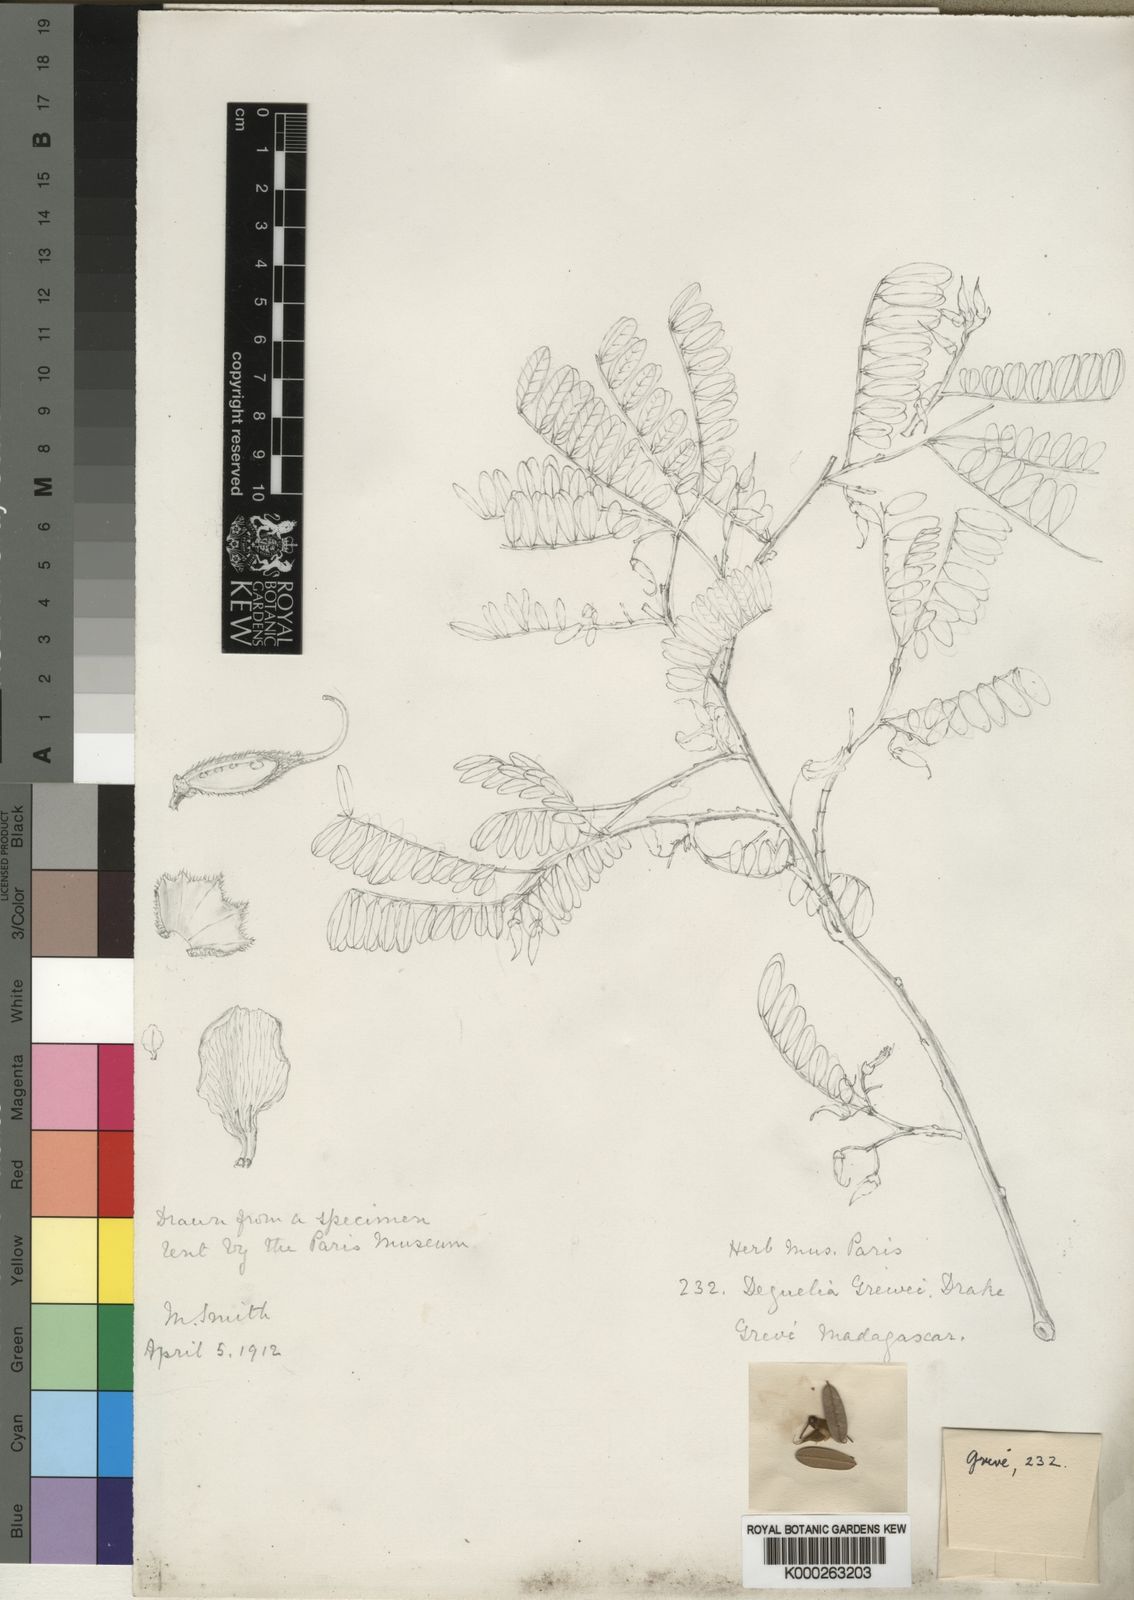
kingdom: Plantae
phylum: Tracheophyta
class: Magnoliopsida
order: Fabales
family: Fabaceae
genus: Pongamiopsis
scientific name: Pongamiopsis pervilleana
